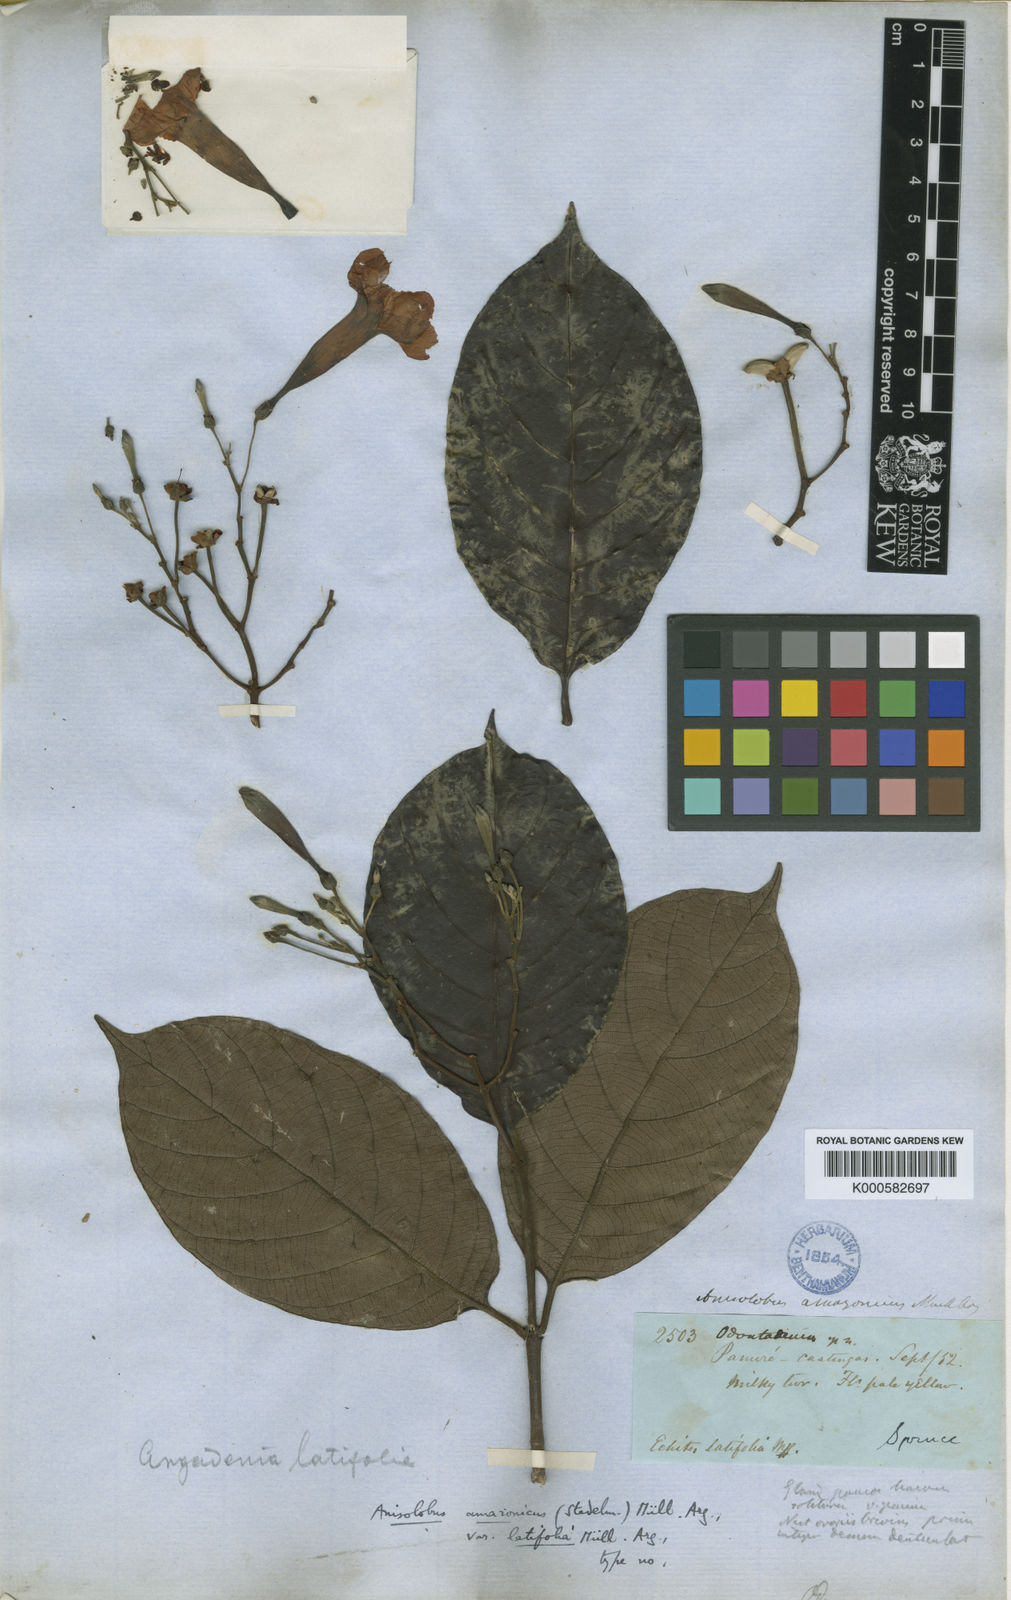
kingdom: Plantae
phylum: Tracheophyta
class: Magnoliopsida
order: Gentianales
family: Apocynaceae
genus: Odontadenia
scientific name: Odontadenia verrucosa
